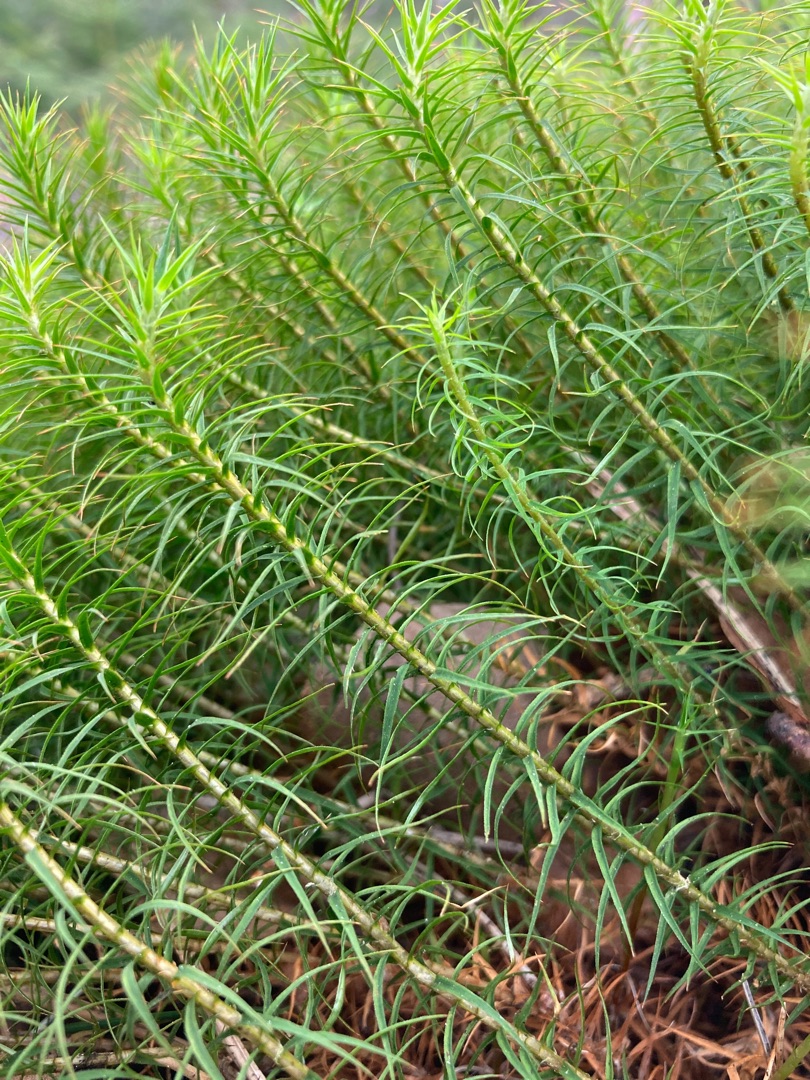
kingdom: Plantae
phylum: Bryophyta
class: Polytrichopsida
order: Polytrichales
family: Polytrichaceae
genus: Polytrichum
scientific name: Polytrichum commune
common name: Almindelig jomfruhår
